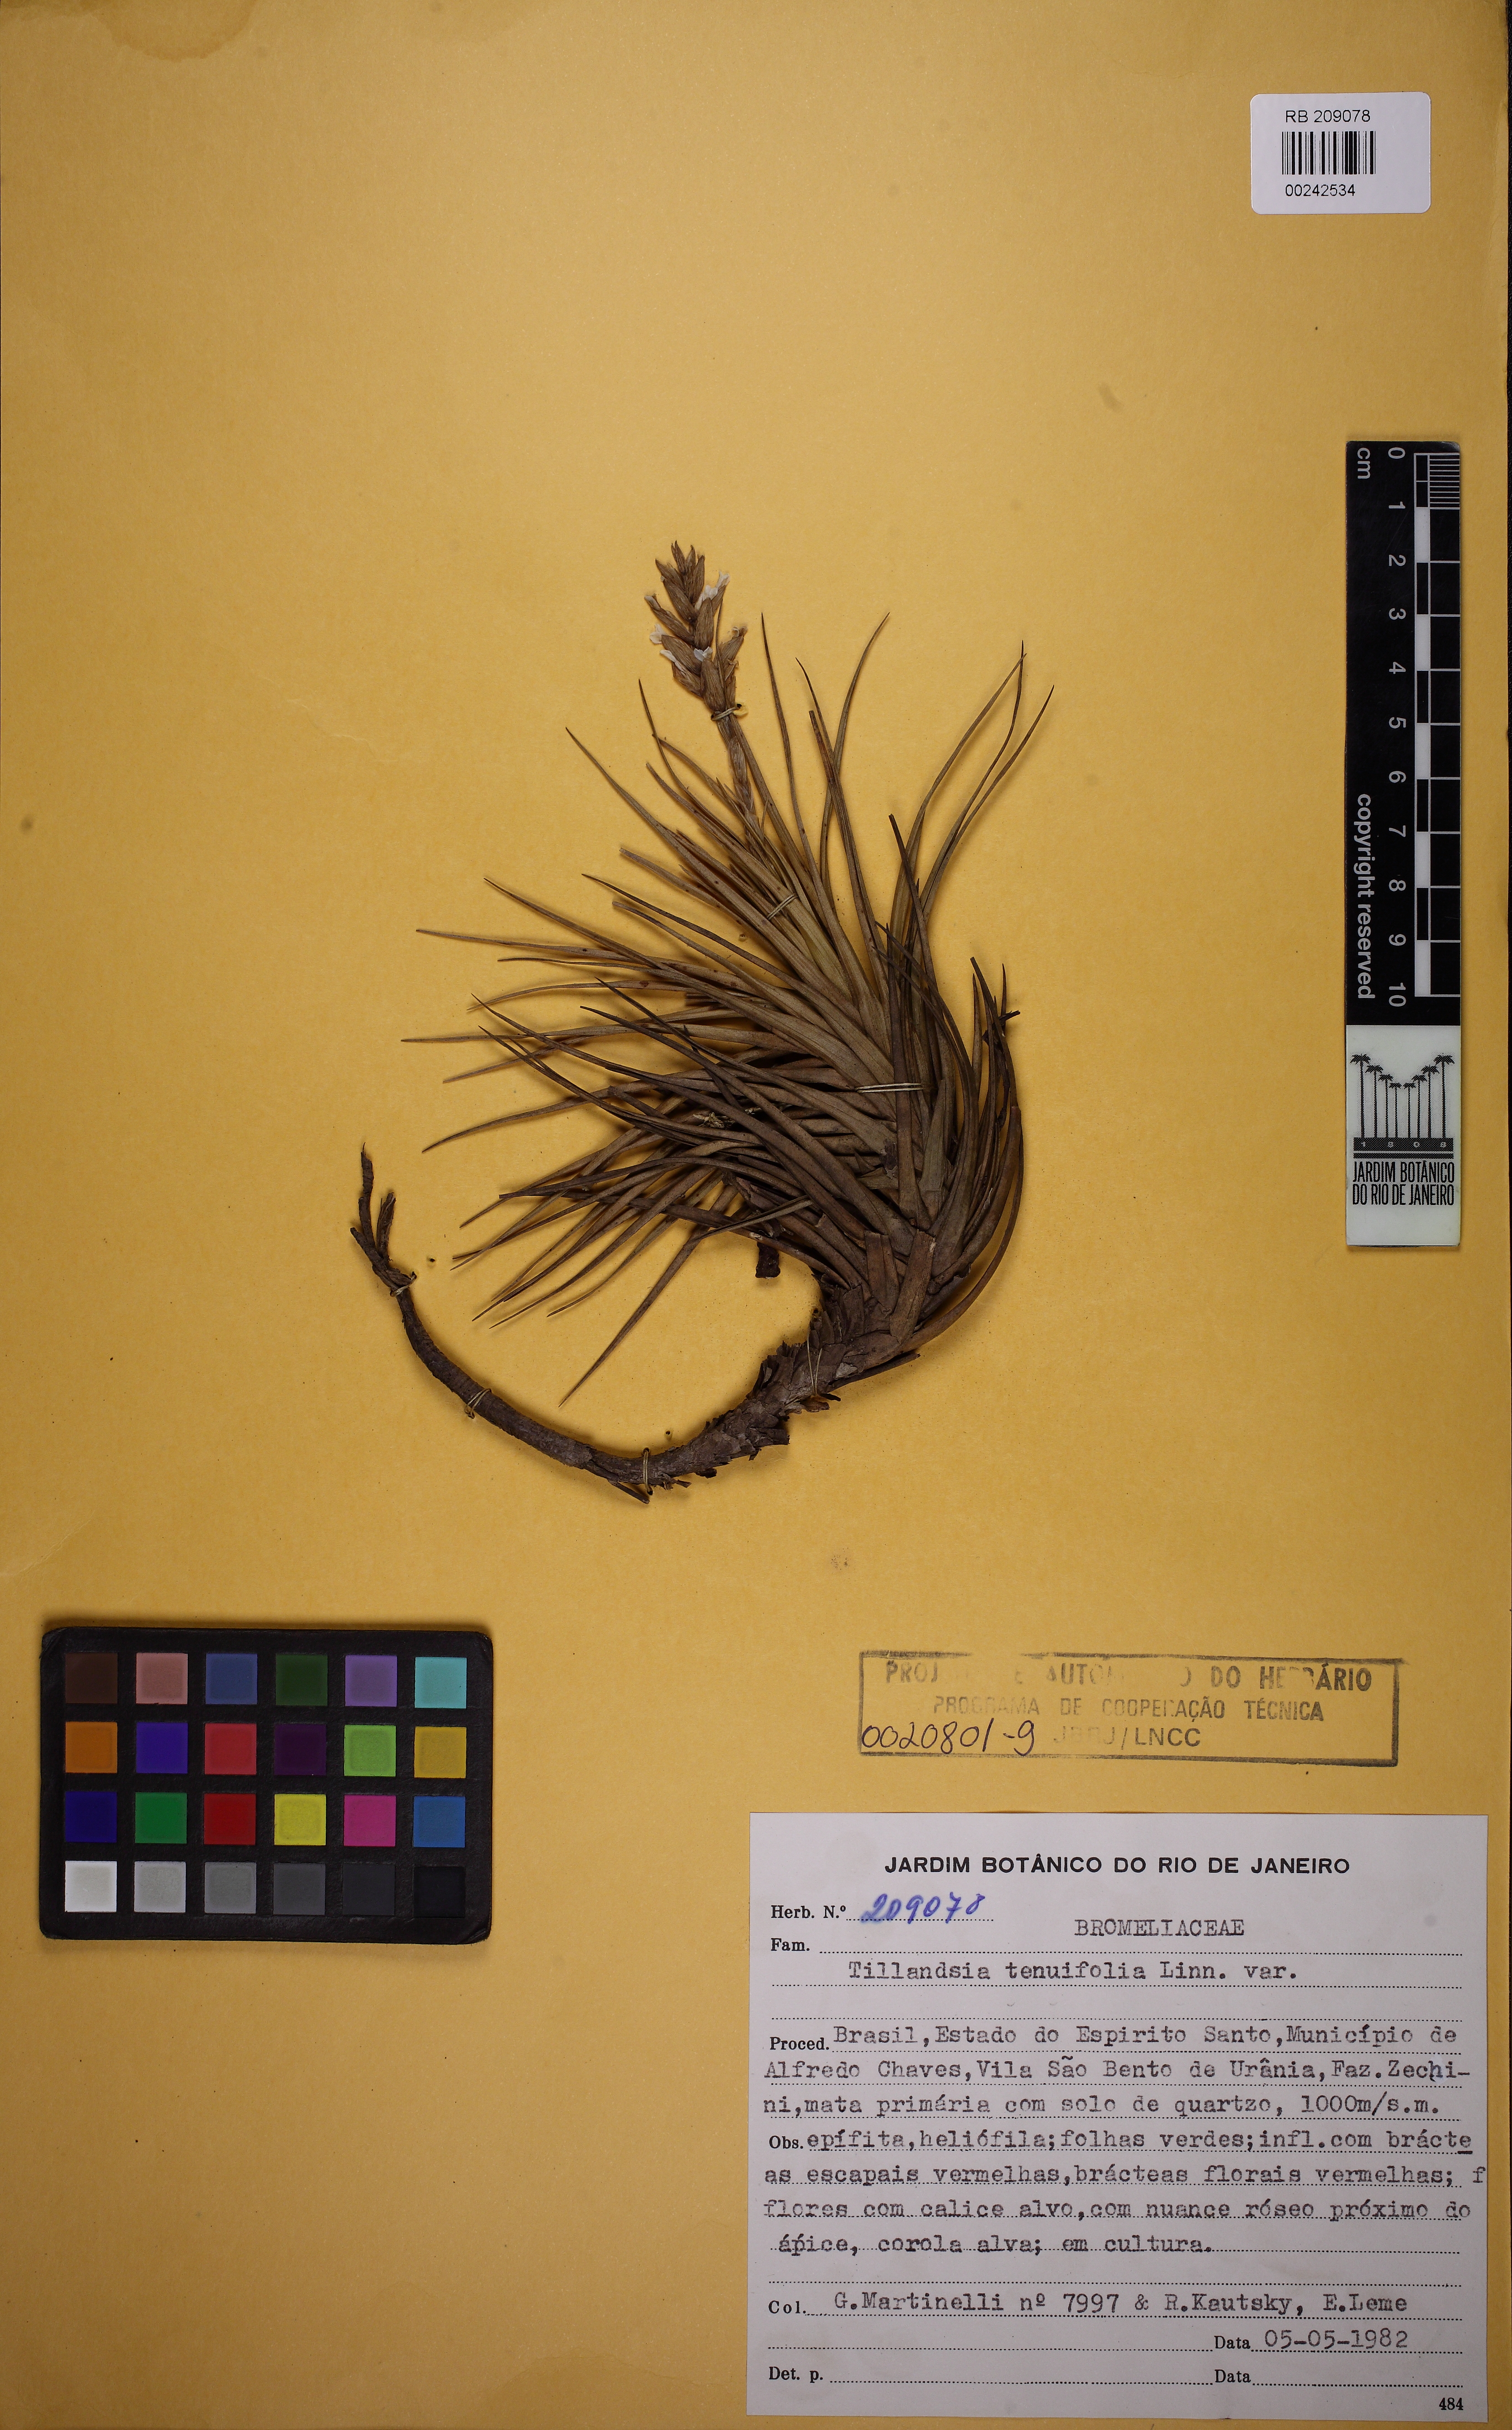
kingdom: Plantae
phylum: Tracheophyta
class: Liliopsida
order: Poales
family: Bromeliaceae
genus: Tillandsia
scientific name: Tillandsia tenuifolia
